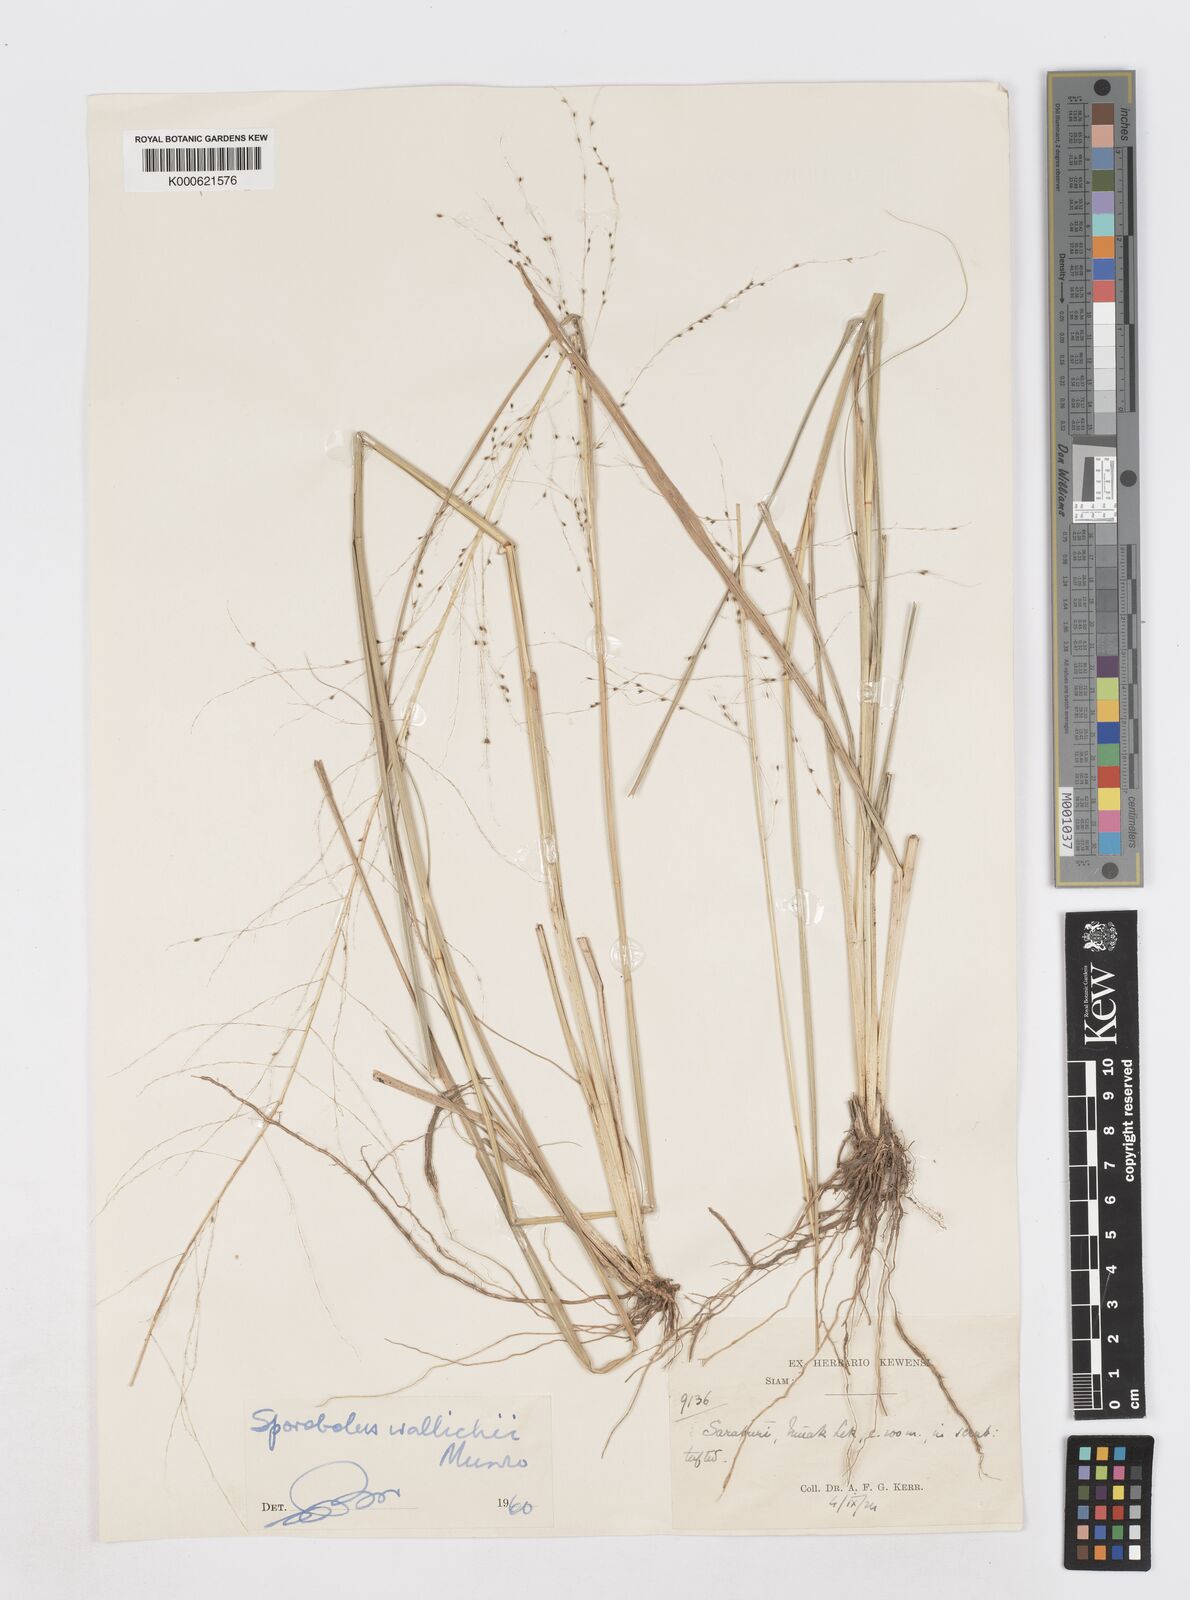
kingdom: Plantae
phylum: Tracheophyta
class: Liliopsida
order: Poales
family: Poaceae
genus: Sporobolus
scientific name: Sporobolus
